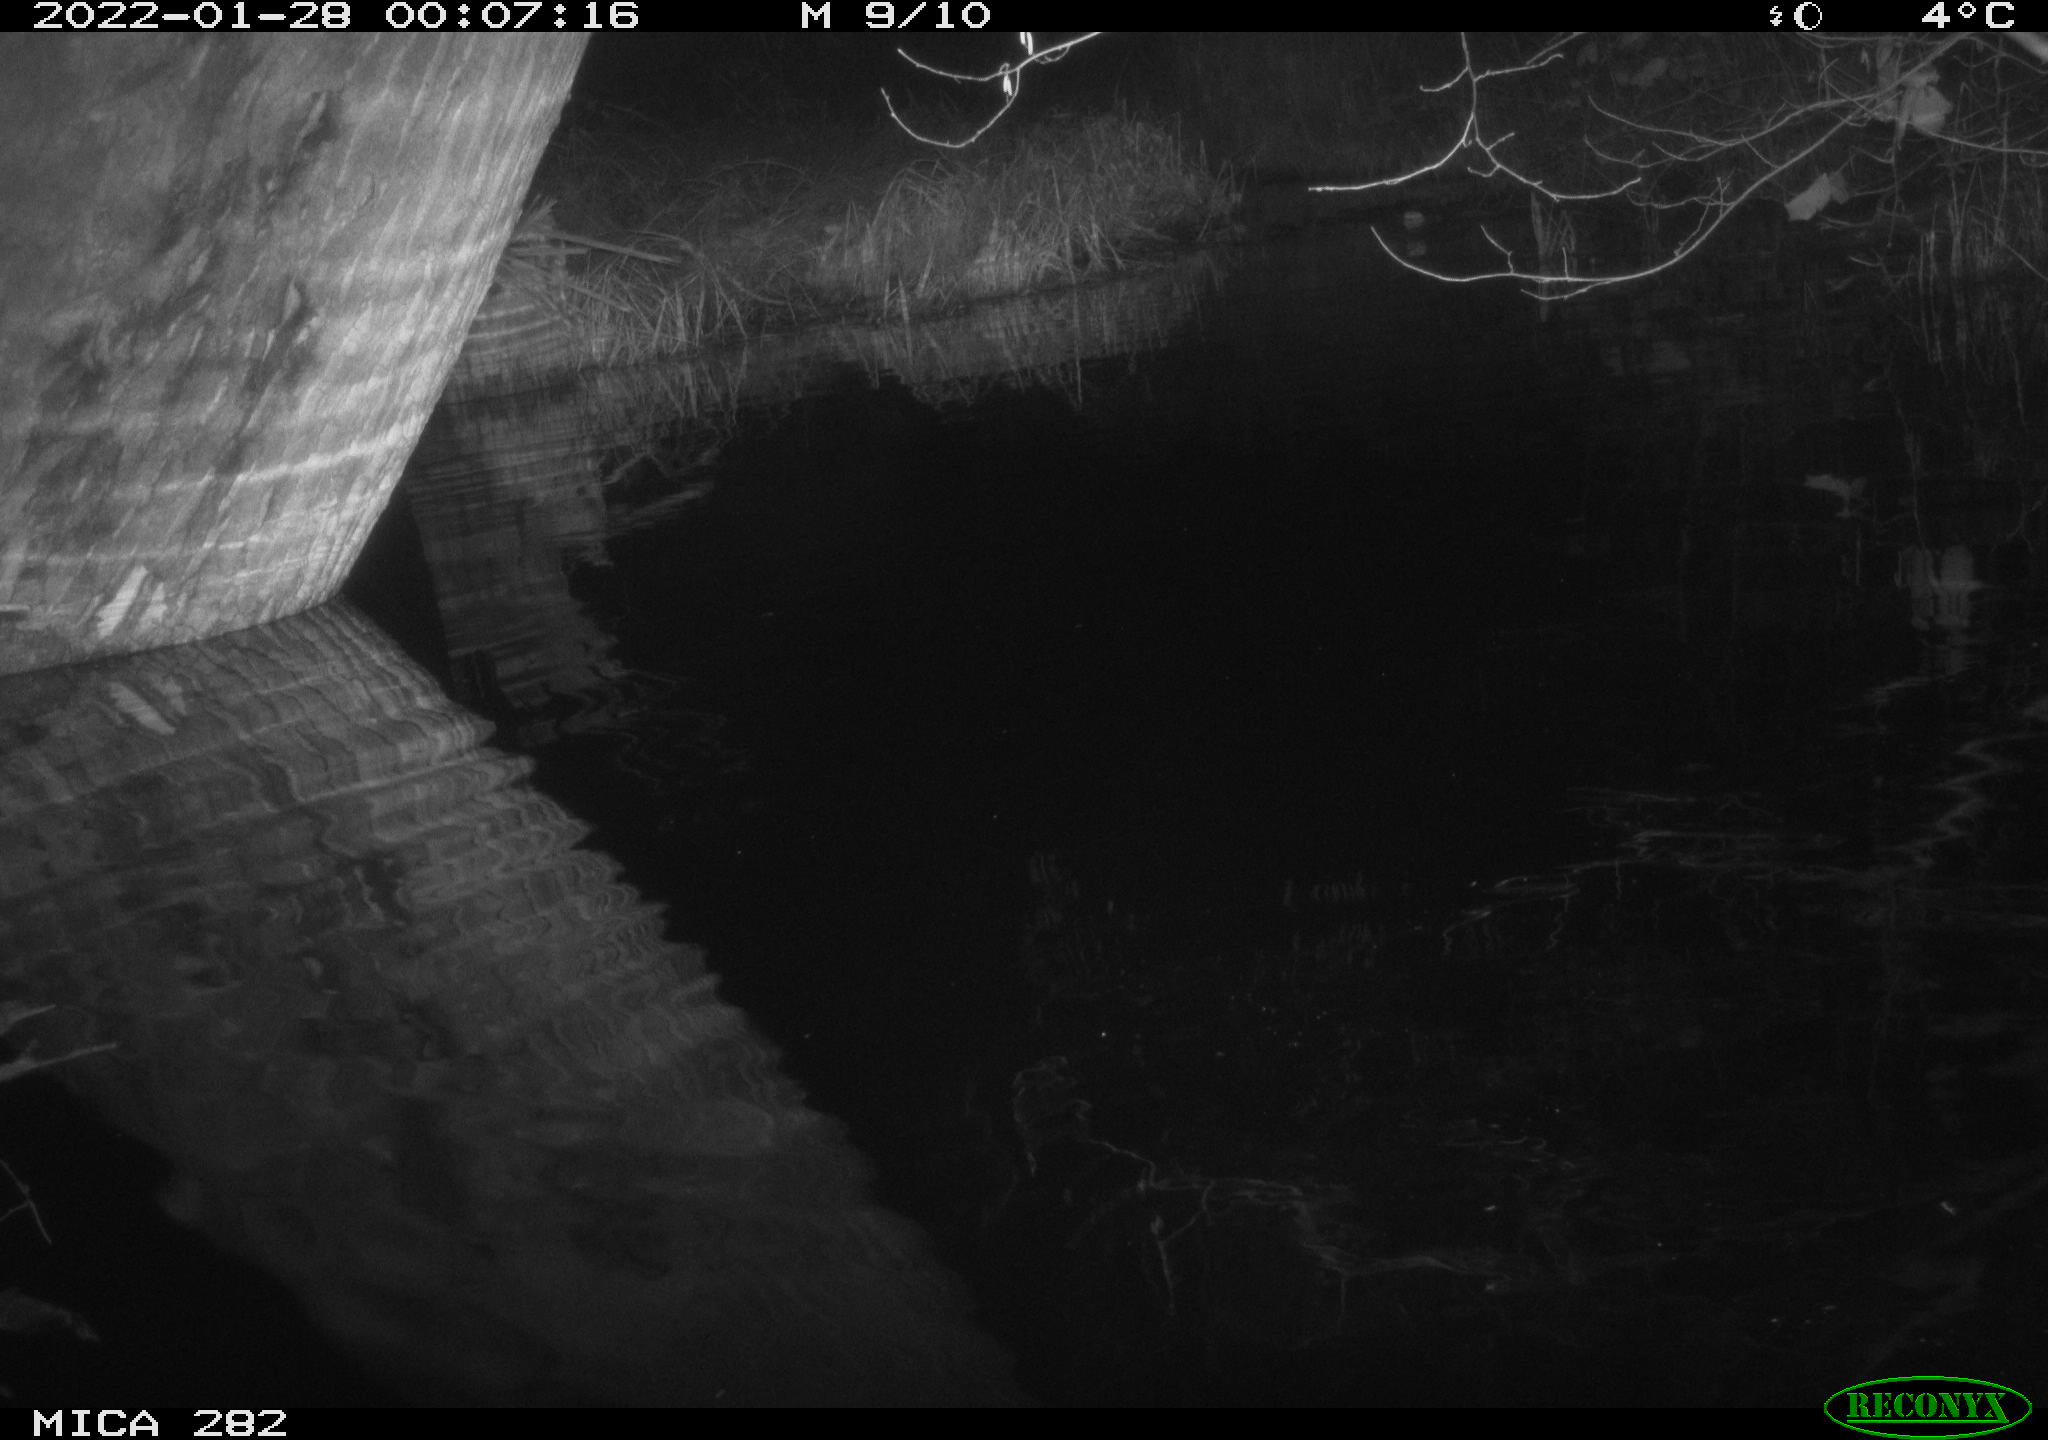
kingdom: Animalia
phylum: Chordata
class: Aves
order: Anseriformes
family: Anatidae
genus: Mareca
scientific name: Mareca strepera
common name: Gadwall
